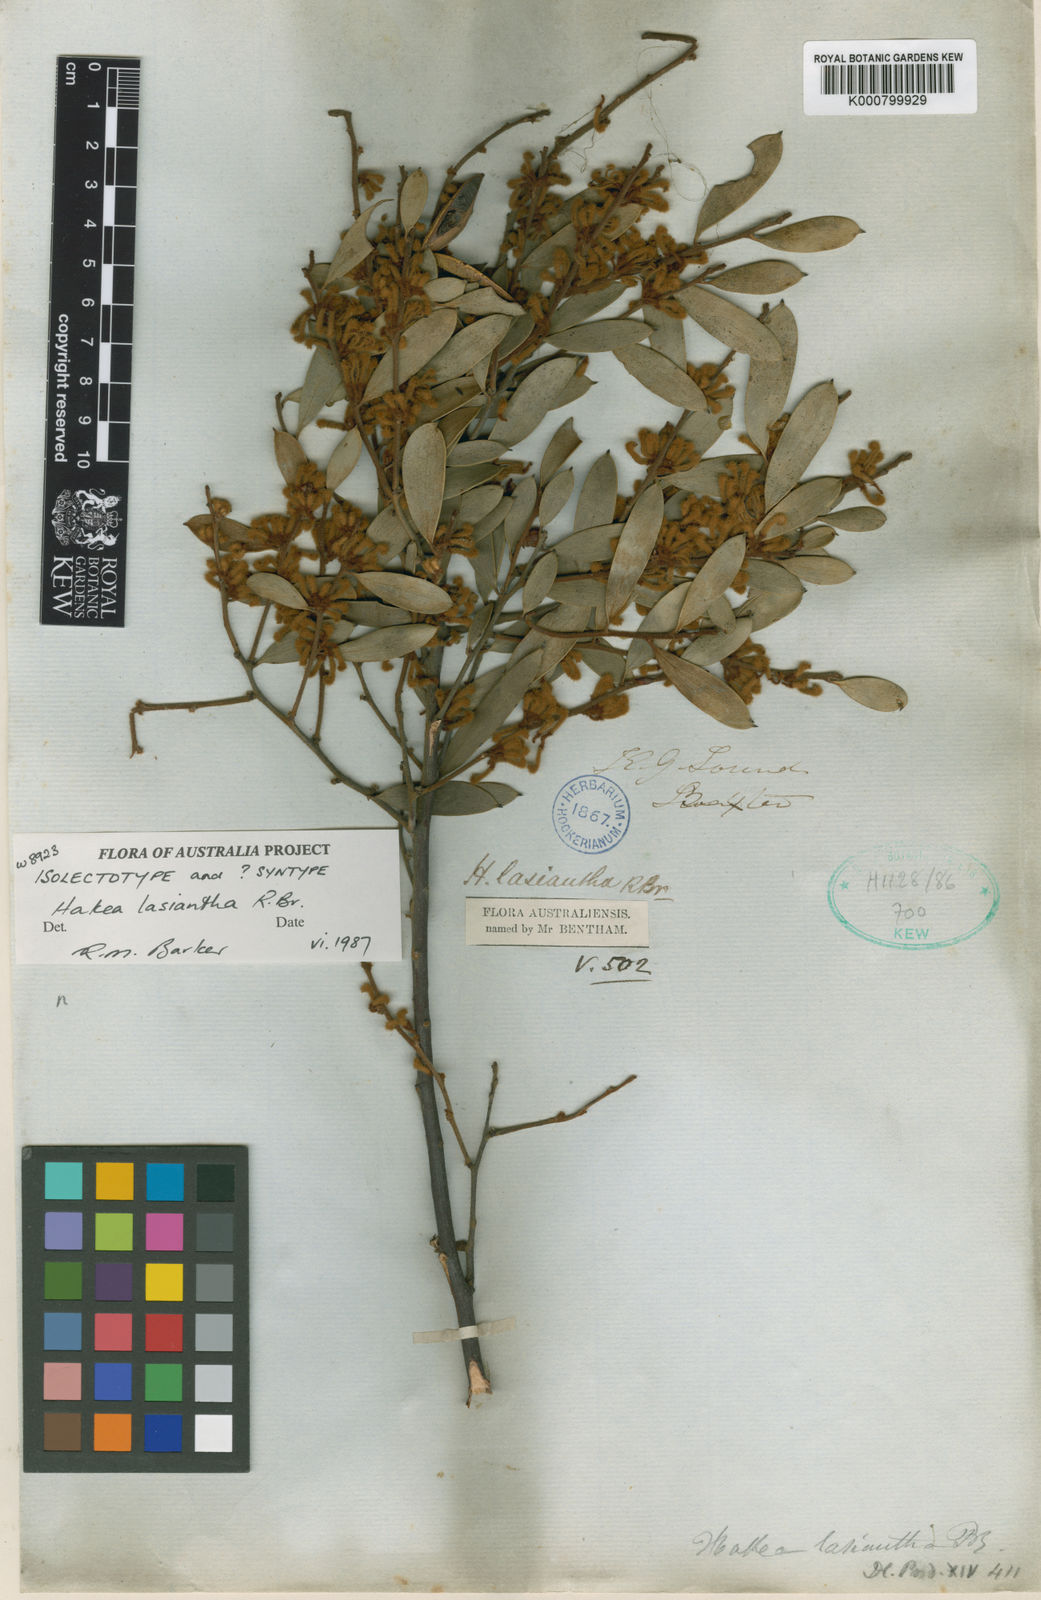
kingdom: Plantae
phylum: Tracheophyta
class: Magnoliopsida
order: Proteales
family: Proteaceae
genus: Hakea
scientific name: Hakea lasiantha
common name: Woolly-flower hakea
